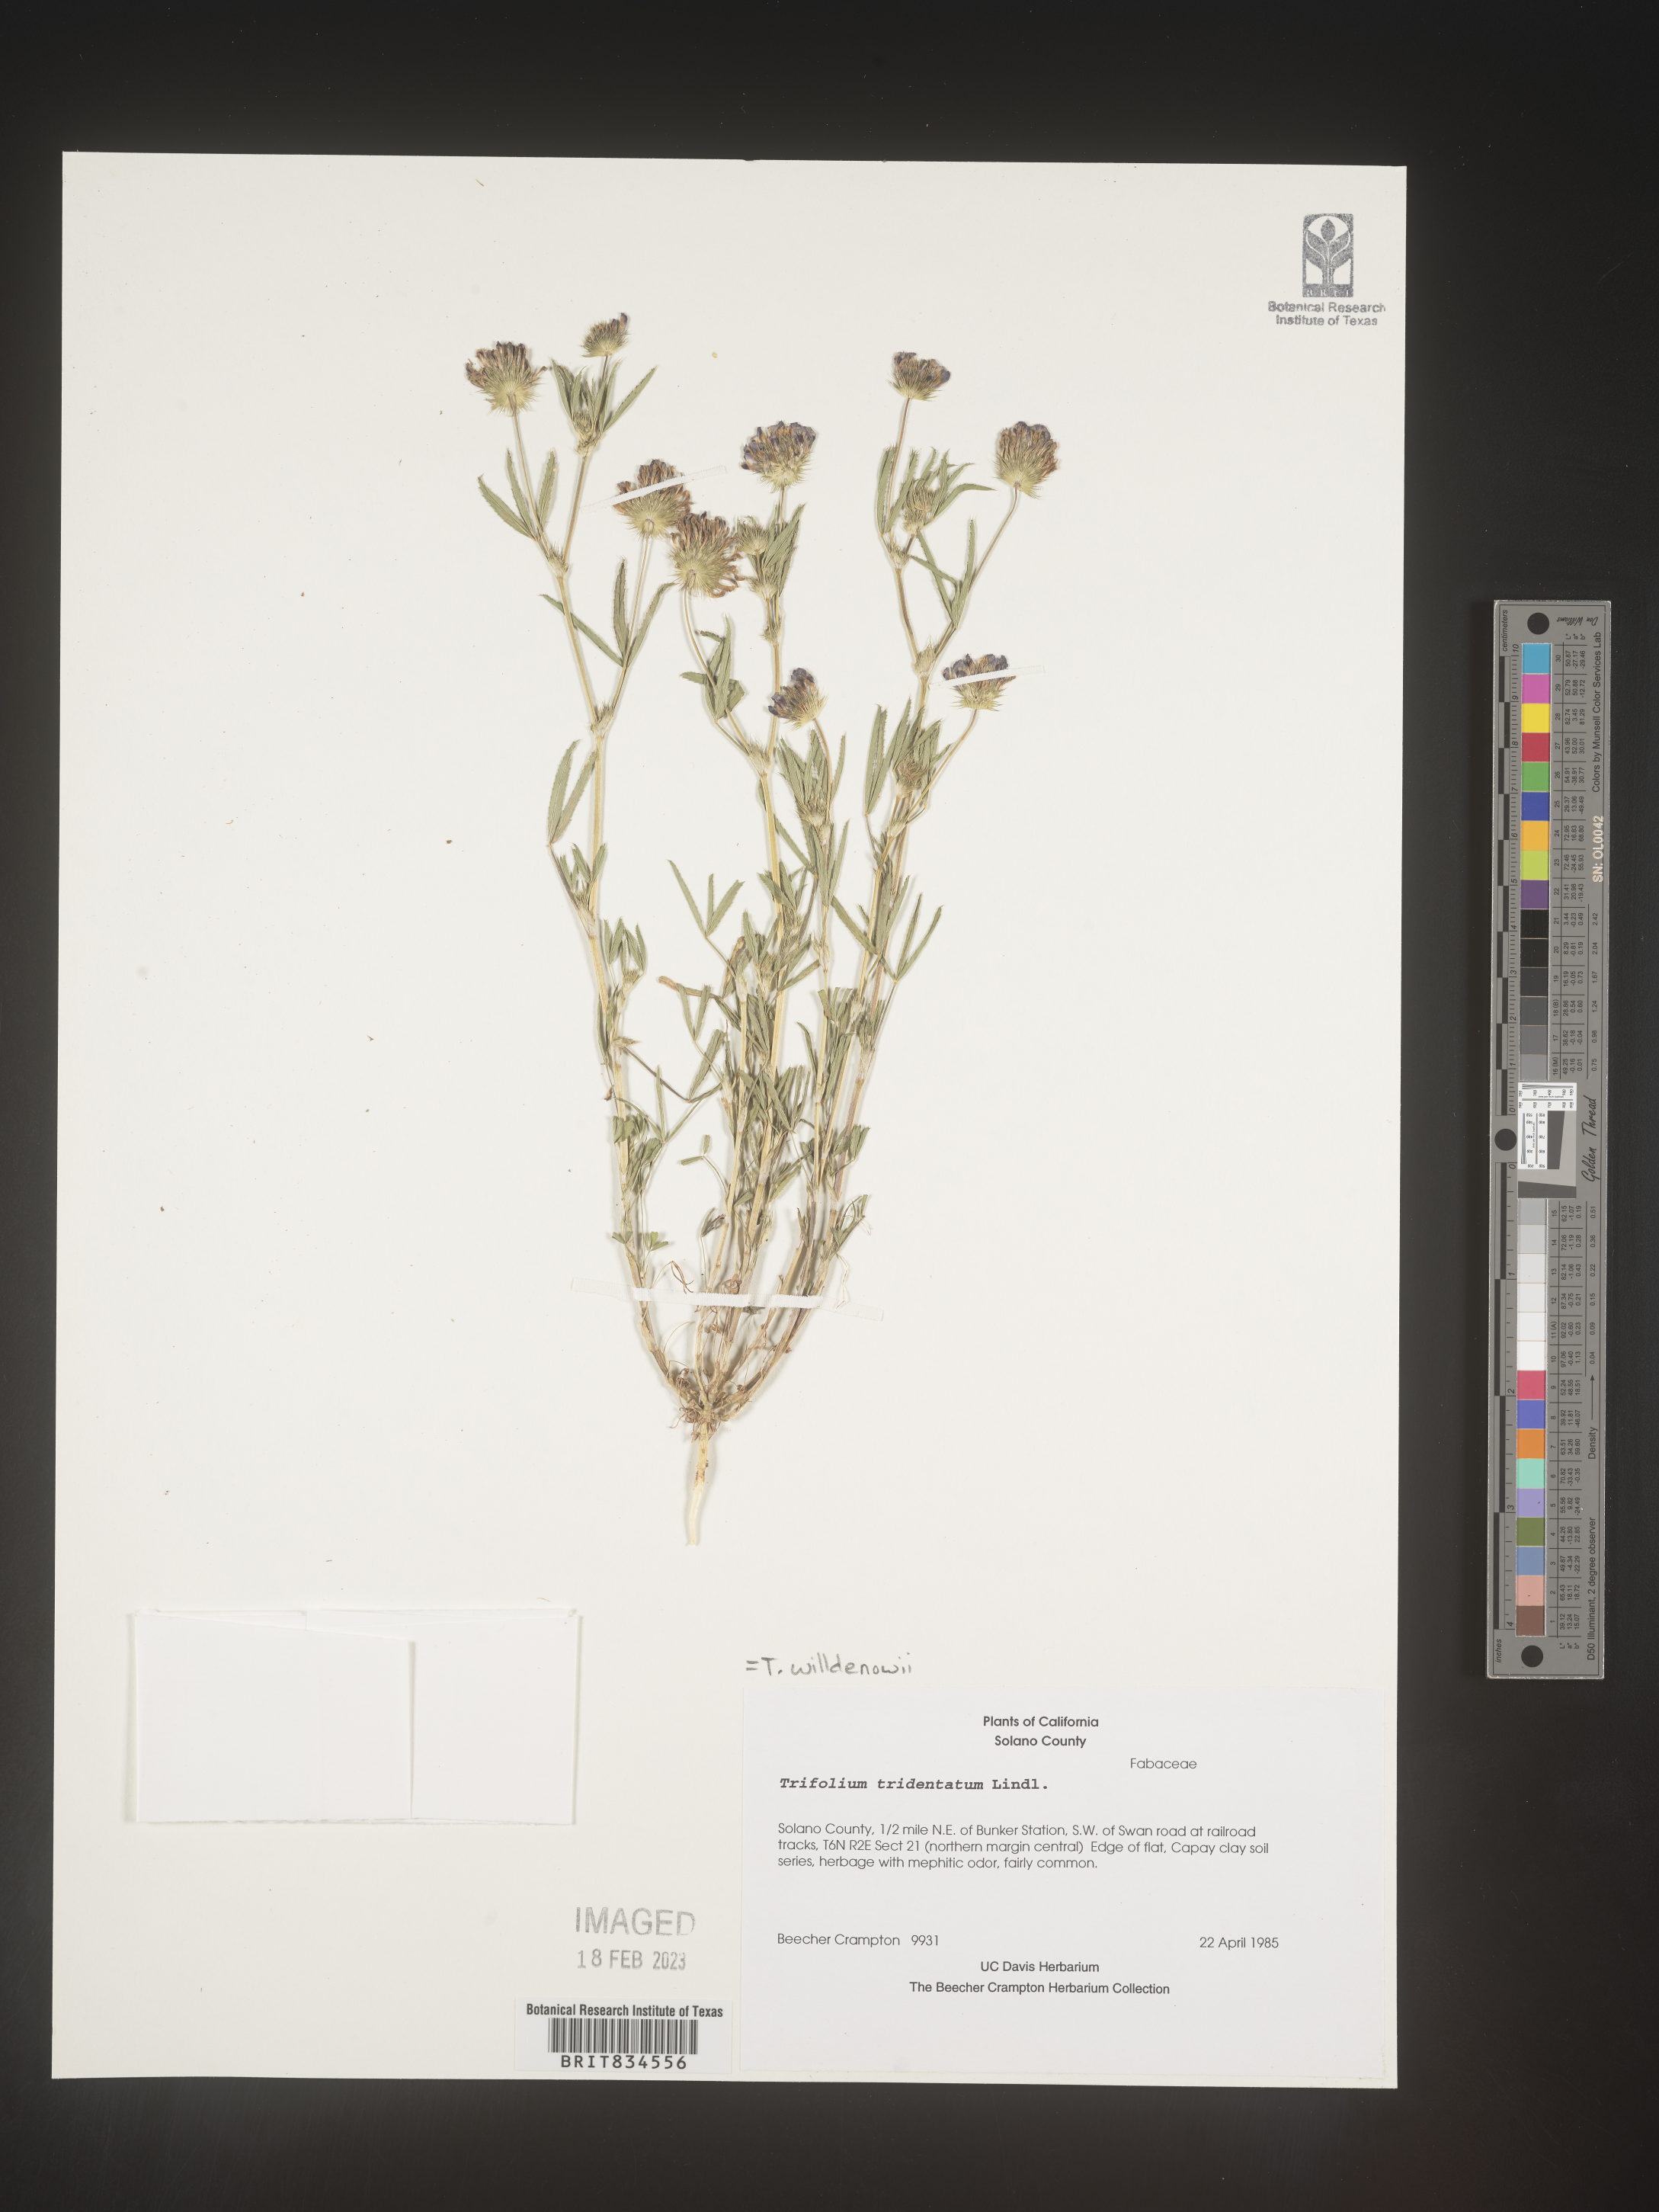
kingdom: Plantae
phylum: Tracheophyta
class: Magnoliopsida
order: Fabales
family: Fabaceae
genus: Trifolium
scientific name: Trifolium
